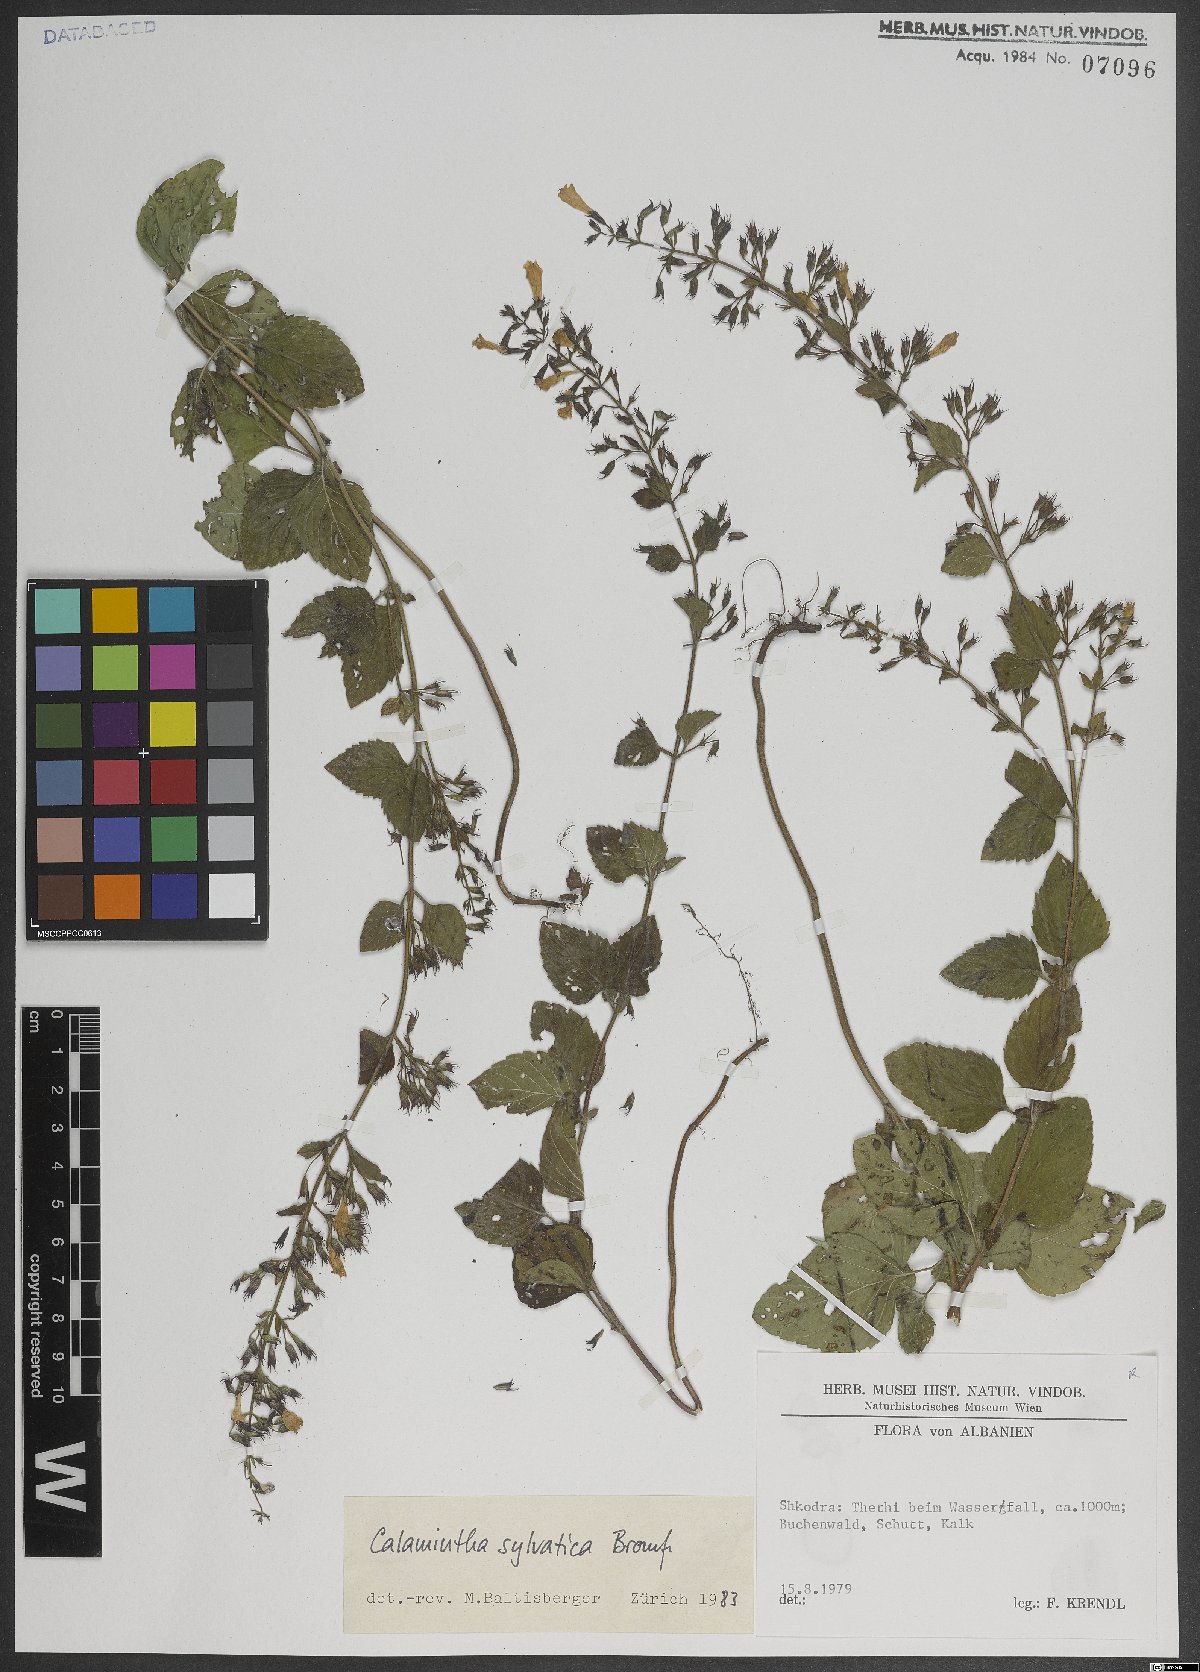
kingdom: Plantae
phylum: Tracheophyta
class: Magnoliopsida
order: Lamiales
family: Lamiaceae
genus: Clinopodium
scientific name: Clinopodium menthifolium
